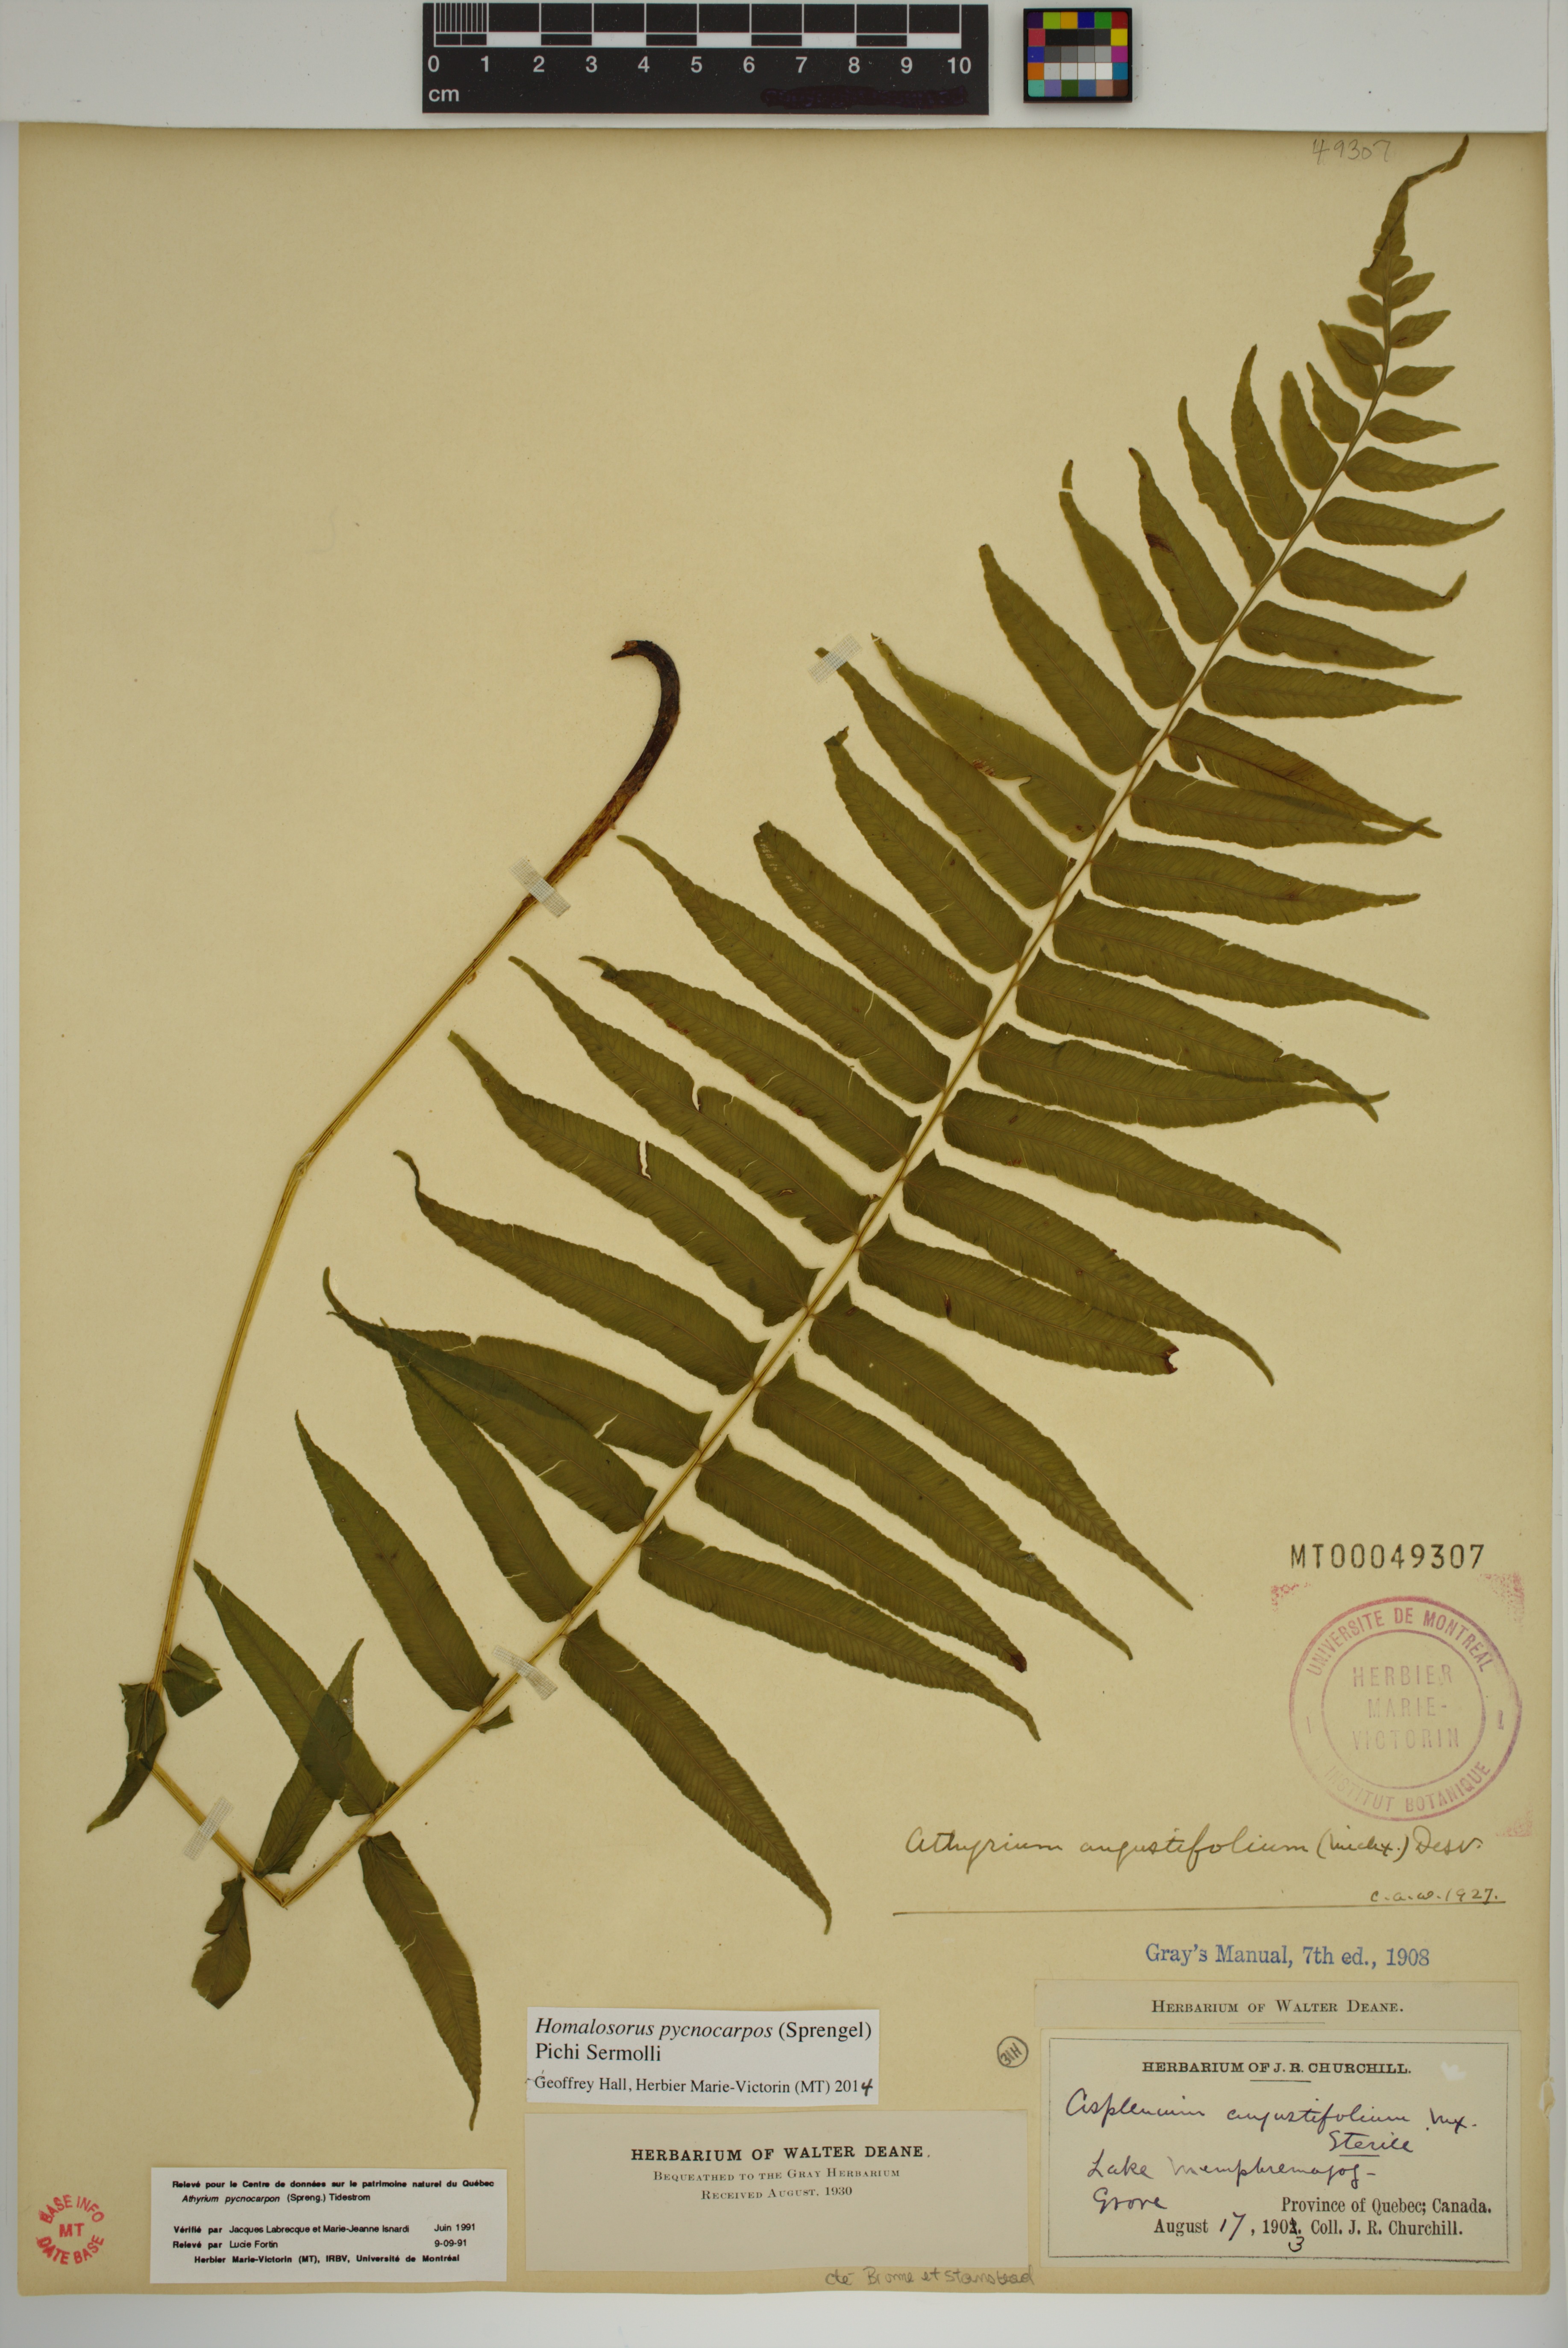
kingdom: Plantae
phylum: Tracheophyta
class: Polypodiopsida
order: Polypodiales
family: Diplaziopsidaceae
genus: Homalosorus
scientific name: Homalosorus pycnocarpos
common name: Glade fern
